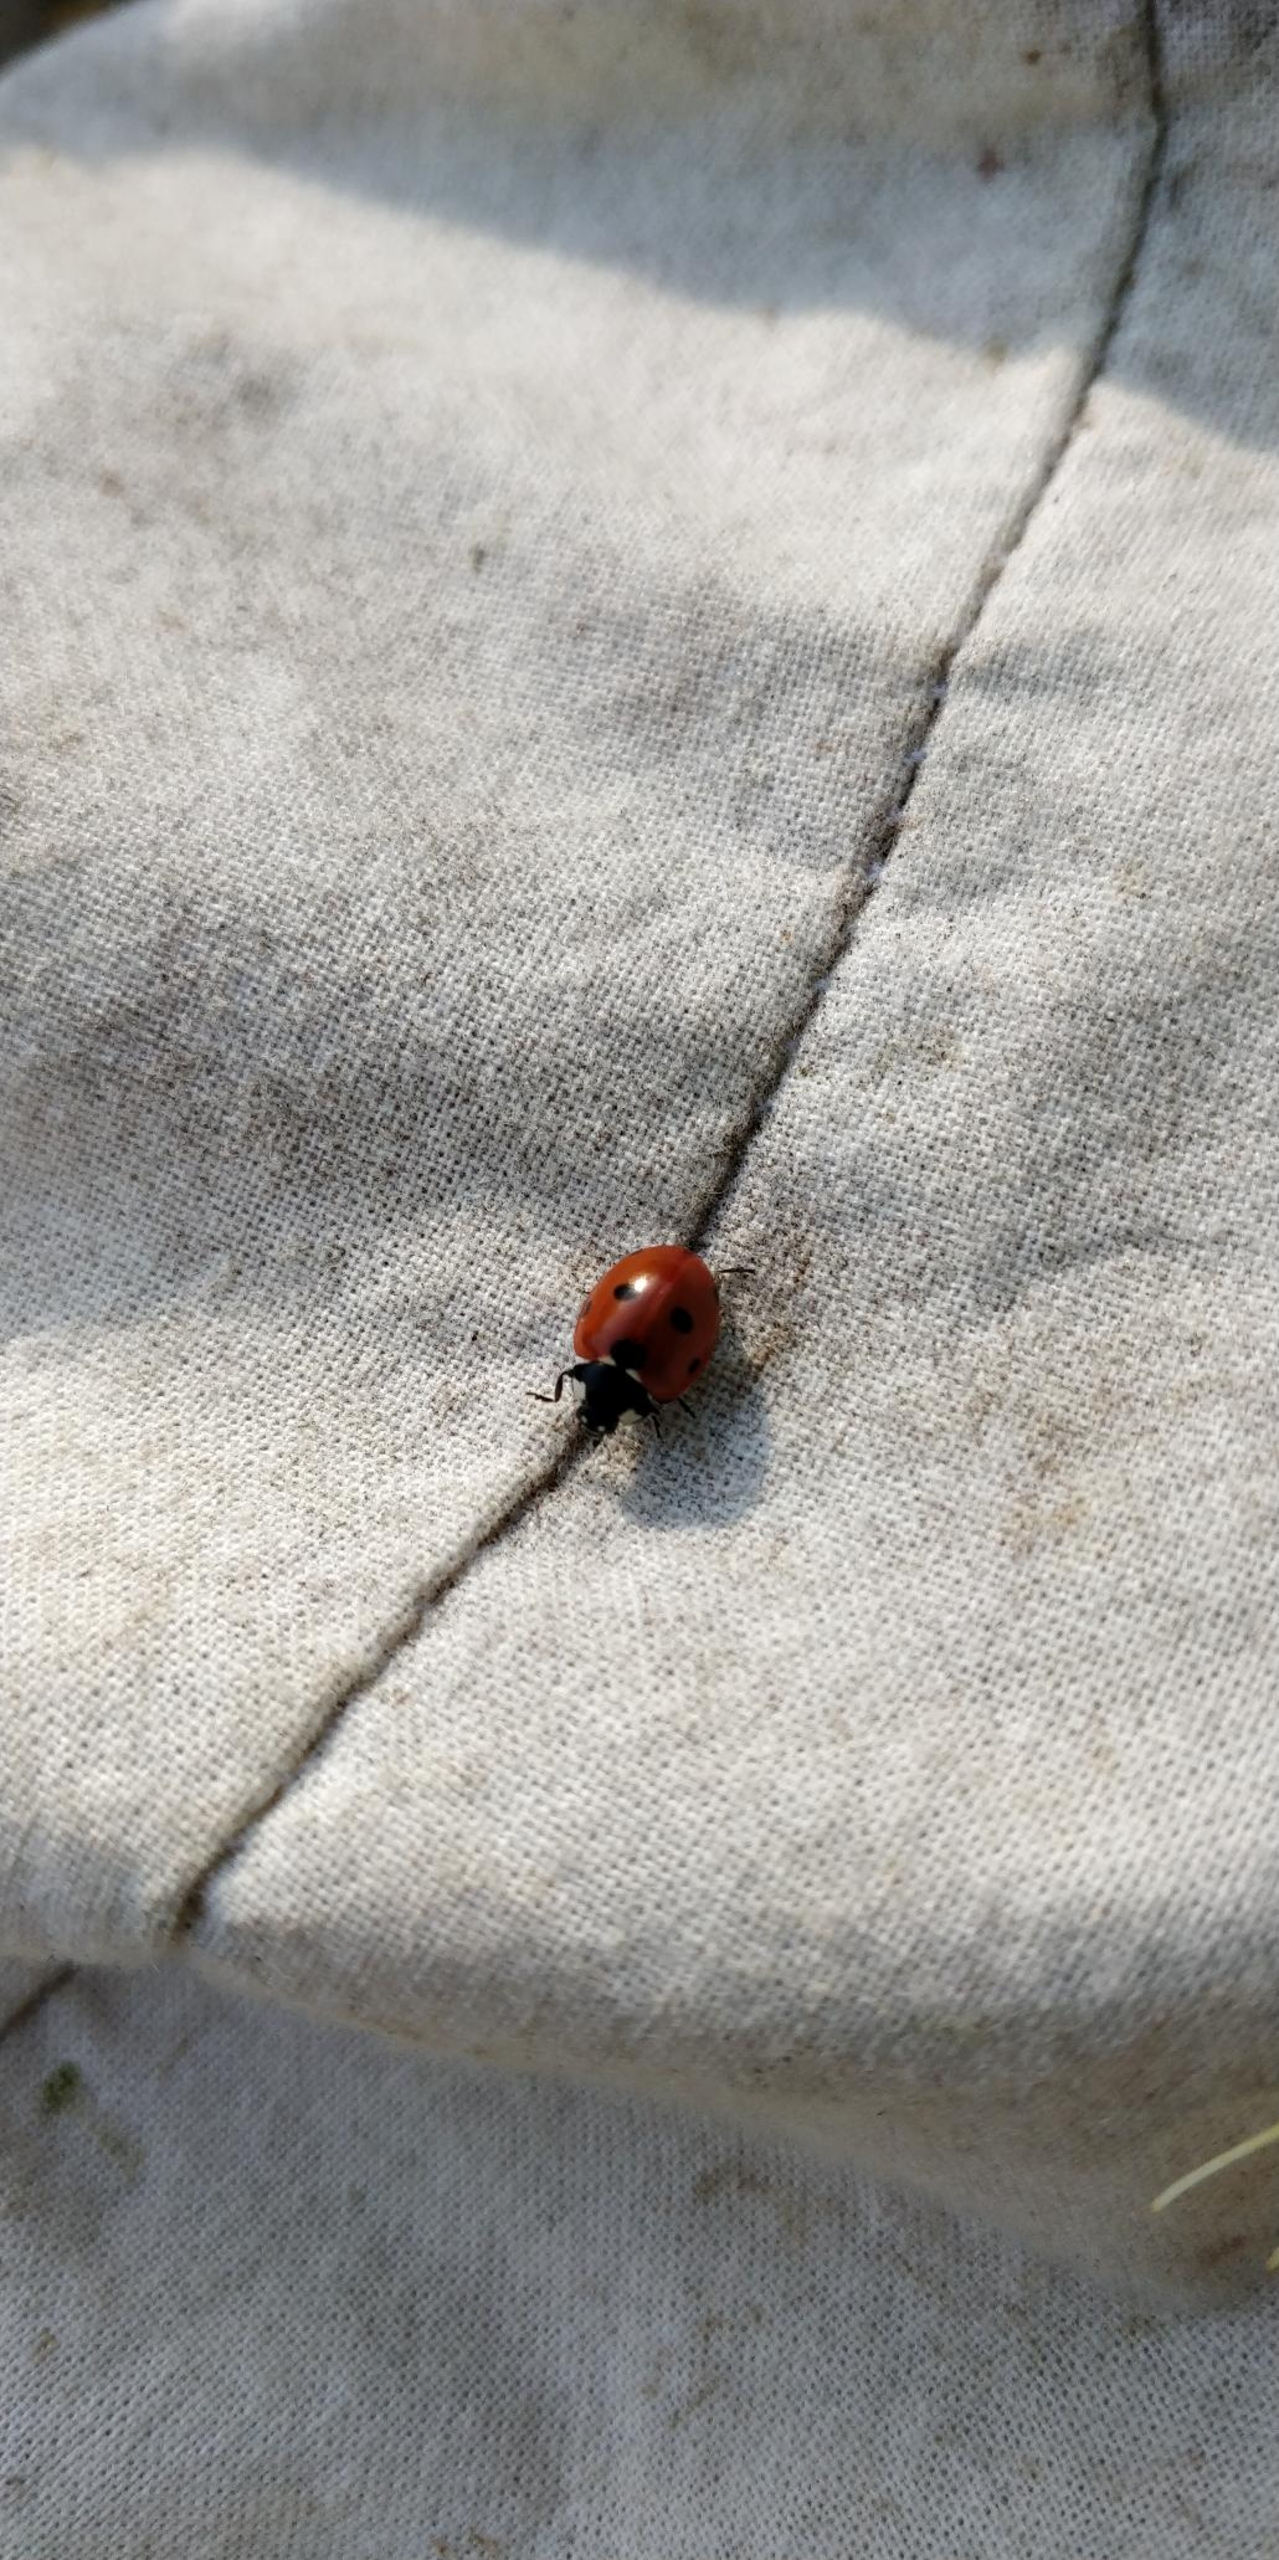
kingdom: Animalia
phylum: Arthropoda
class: Insecta
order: Coleoptera
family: Coccinellidae
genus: Coccinella
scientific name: Coccinella septempunctata
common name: Syvplettet mariehøne
